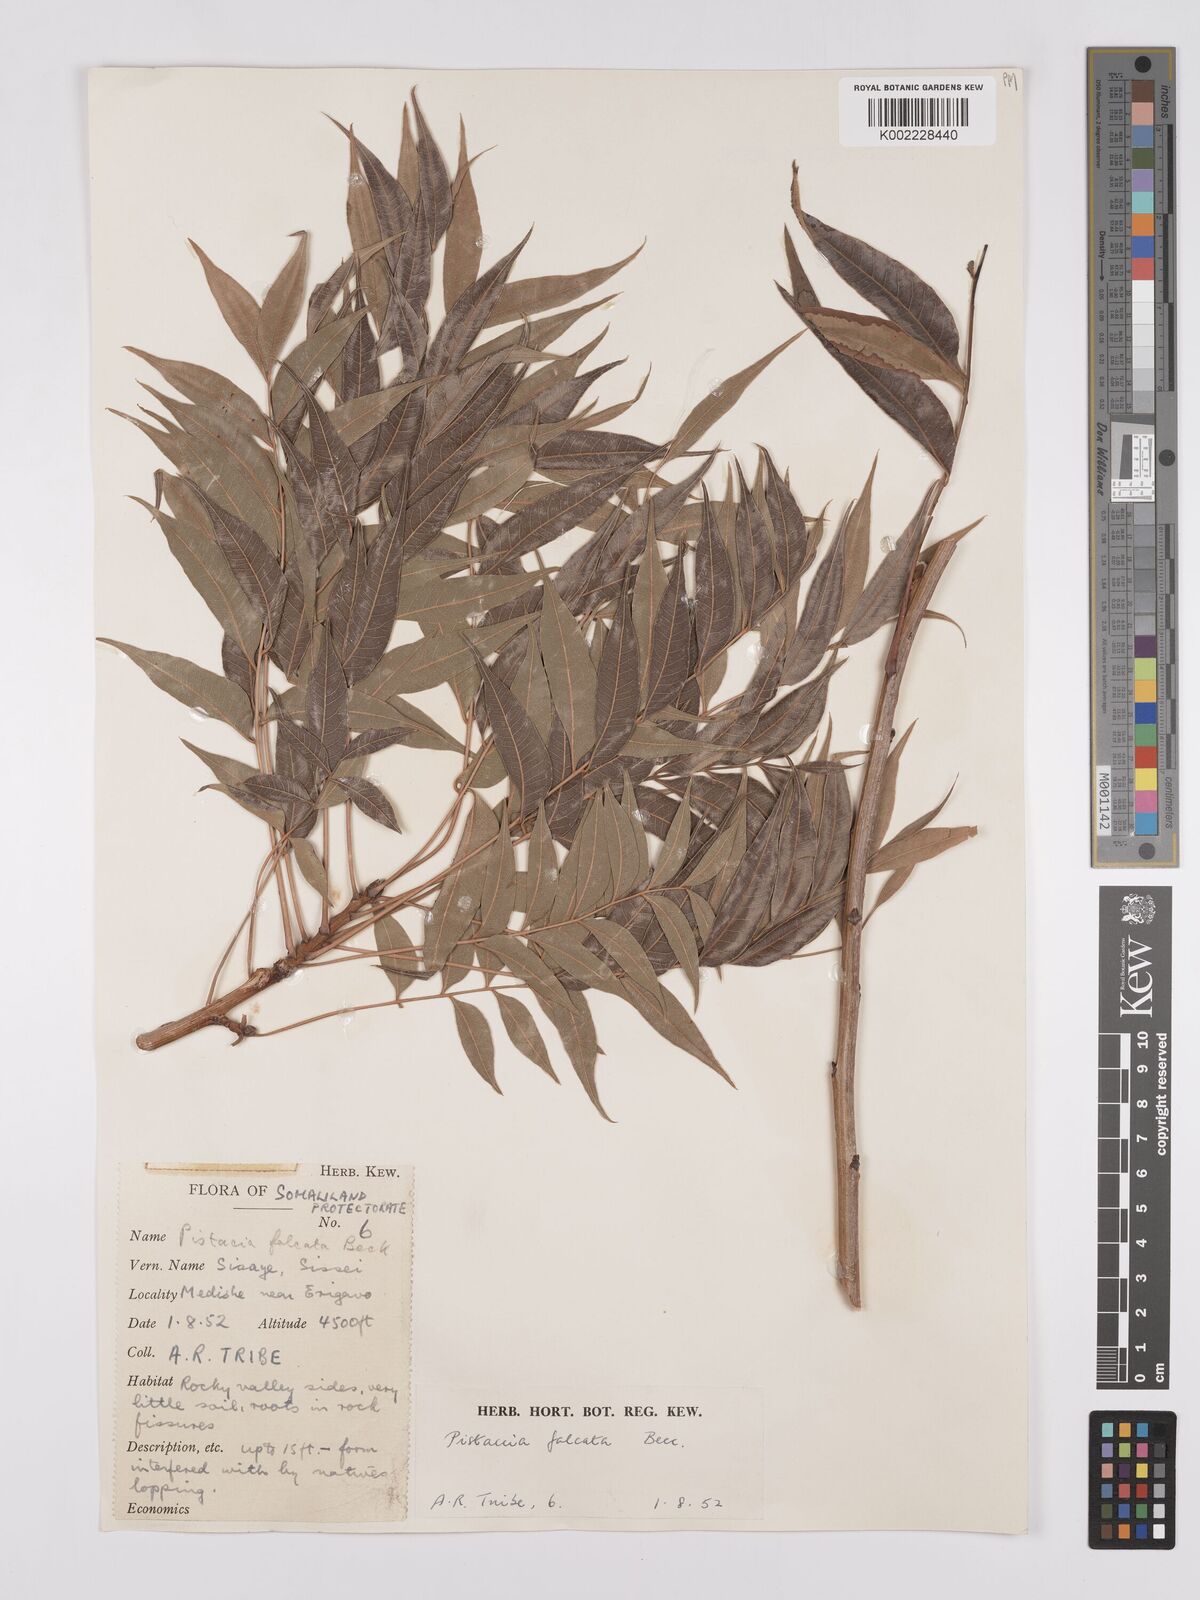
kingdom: Plantae
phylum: Tracheophyta
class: Magnoliopsida
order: Sapindales
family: Anacardiaceae
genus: Pistacia
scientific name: Pistacia falcata
